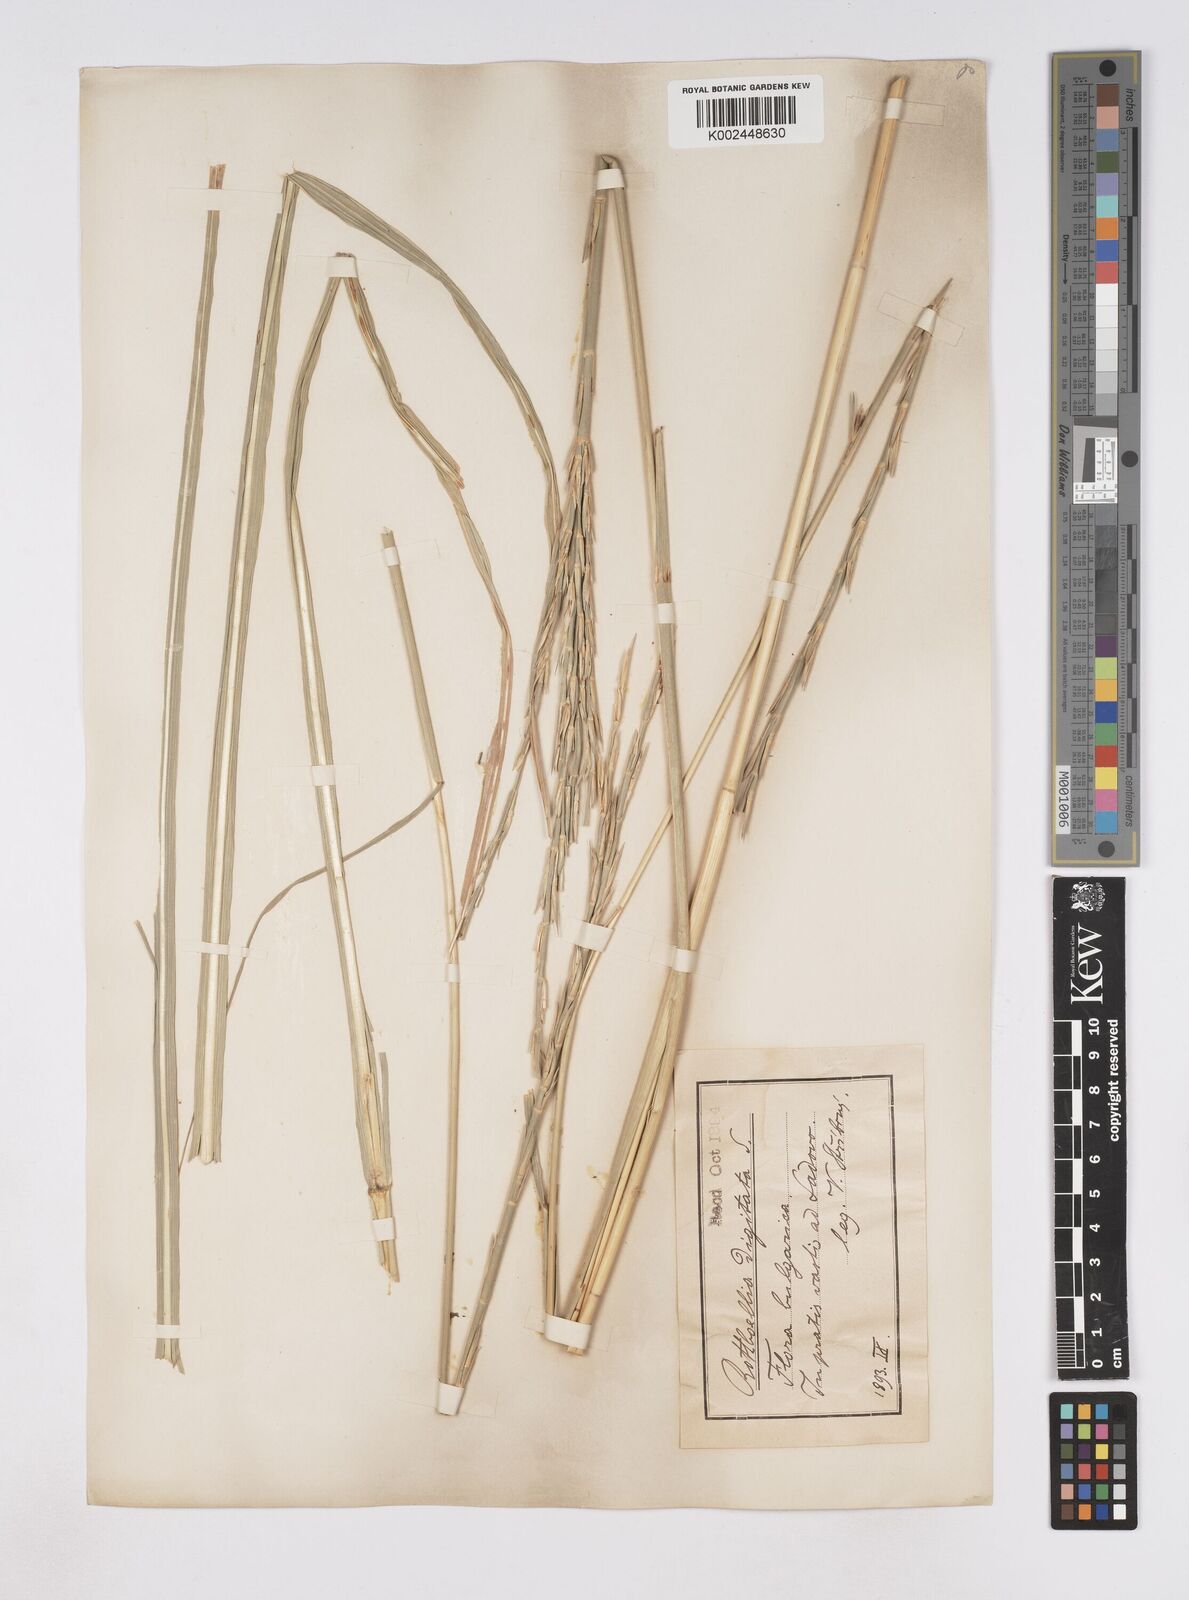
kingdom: Plantae
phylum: Tracheophyta
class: Liliopsida
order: Poales
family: Poaceae
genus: Phacelurus
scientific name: Phacelurus digitatus
